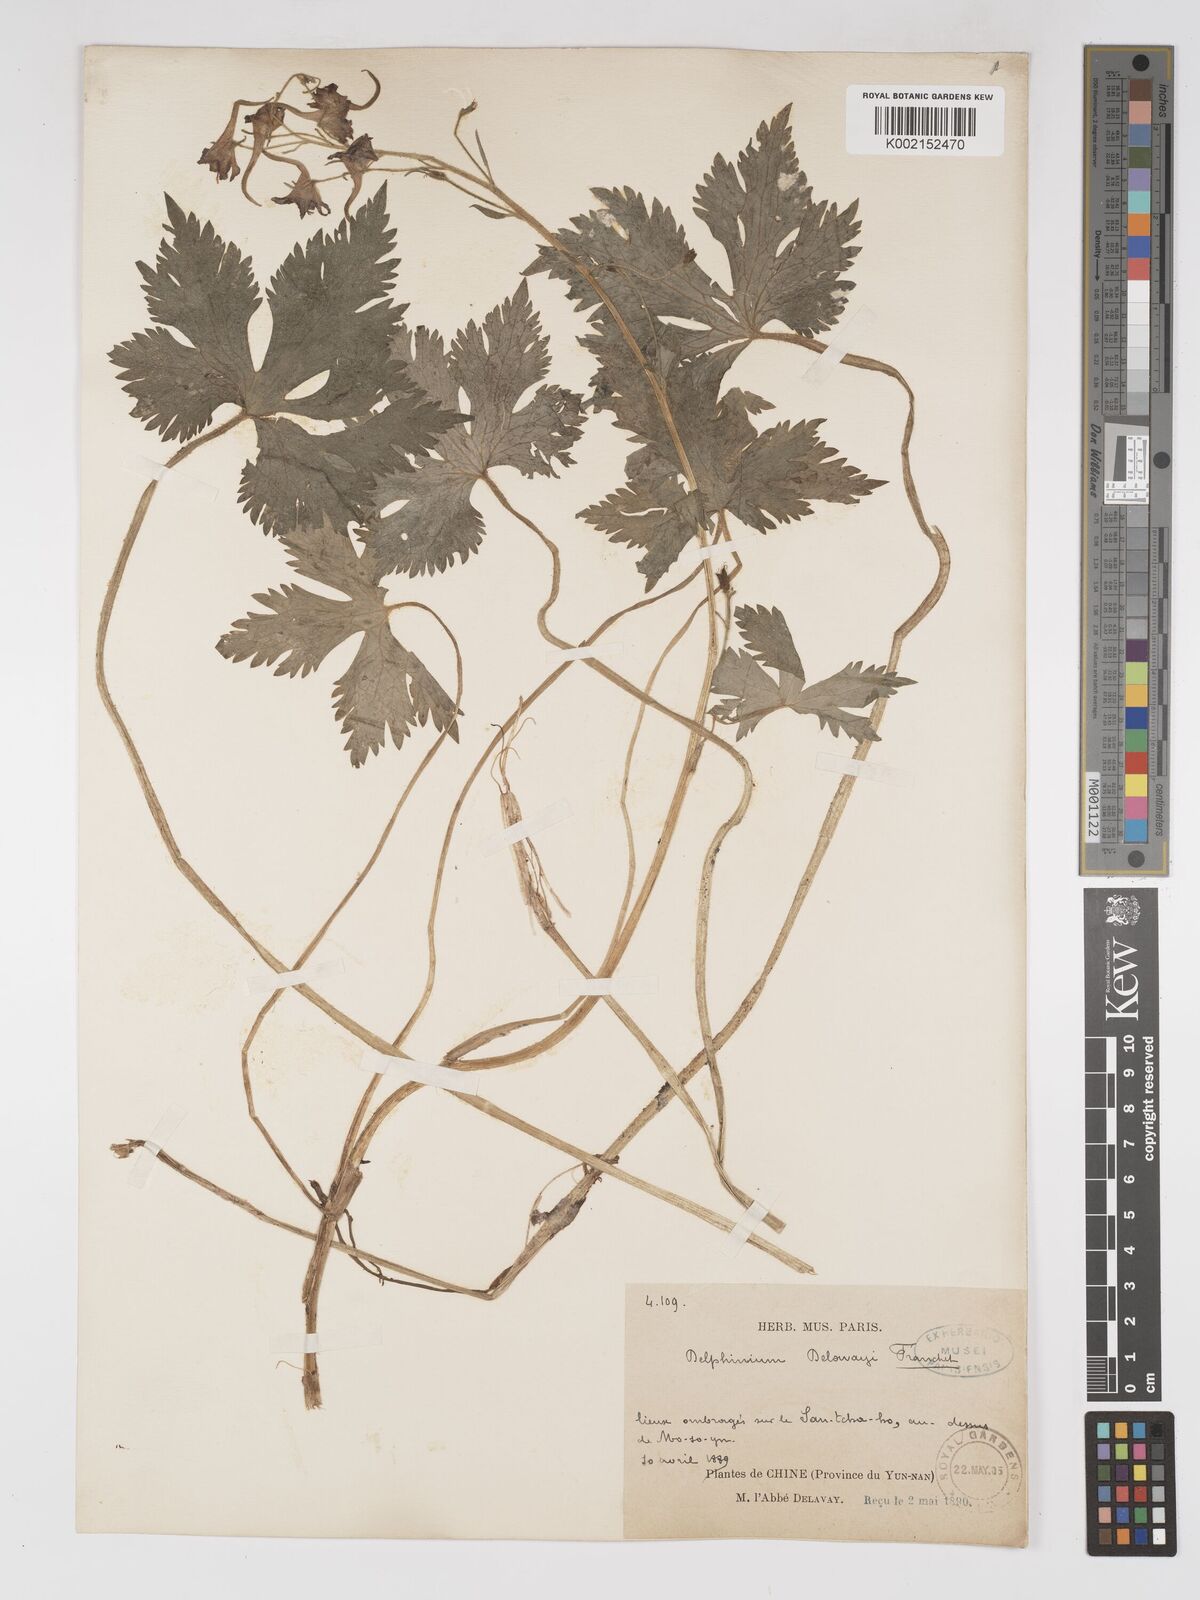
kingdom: Plantae
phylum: Tracheophyta
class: Magnoliopsida
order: Ranunculales
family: Ranunculaceae
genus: Delphinium
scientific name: Delphinium delavayi
